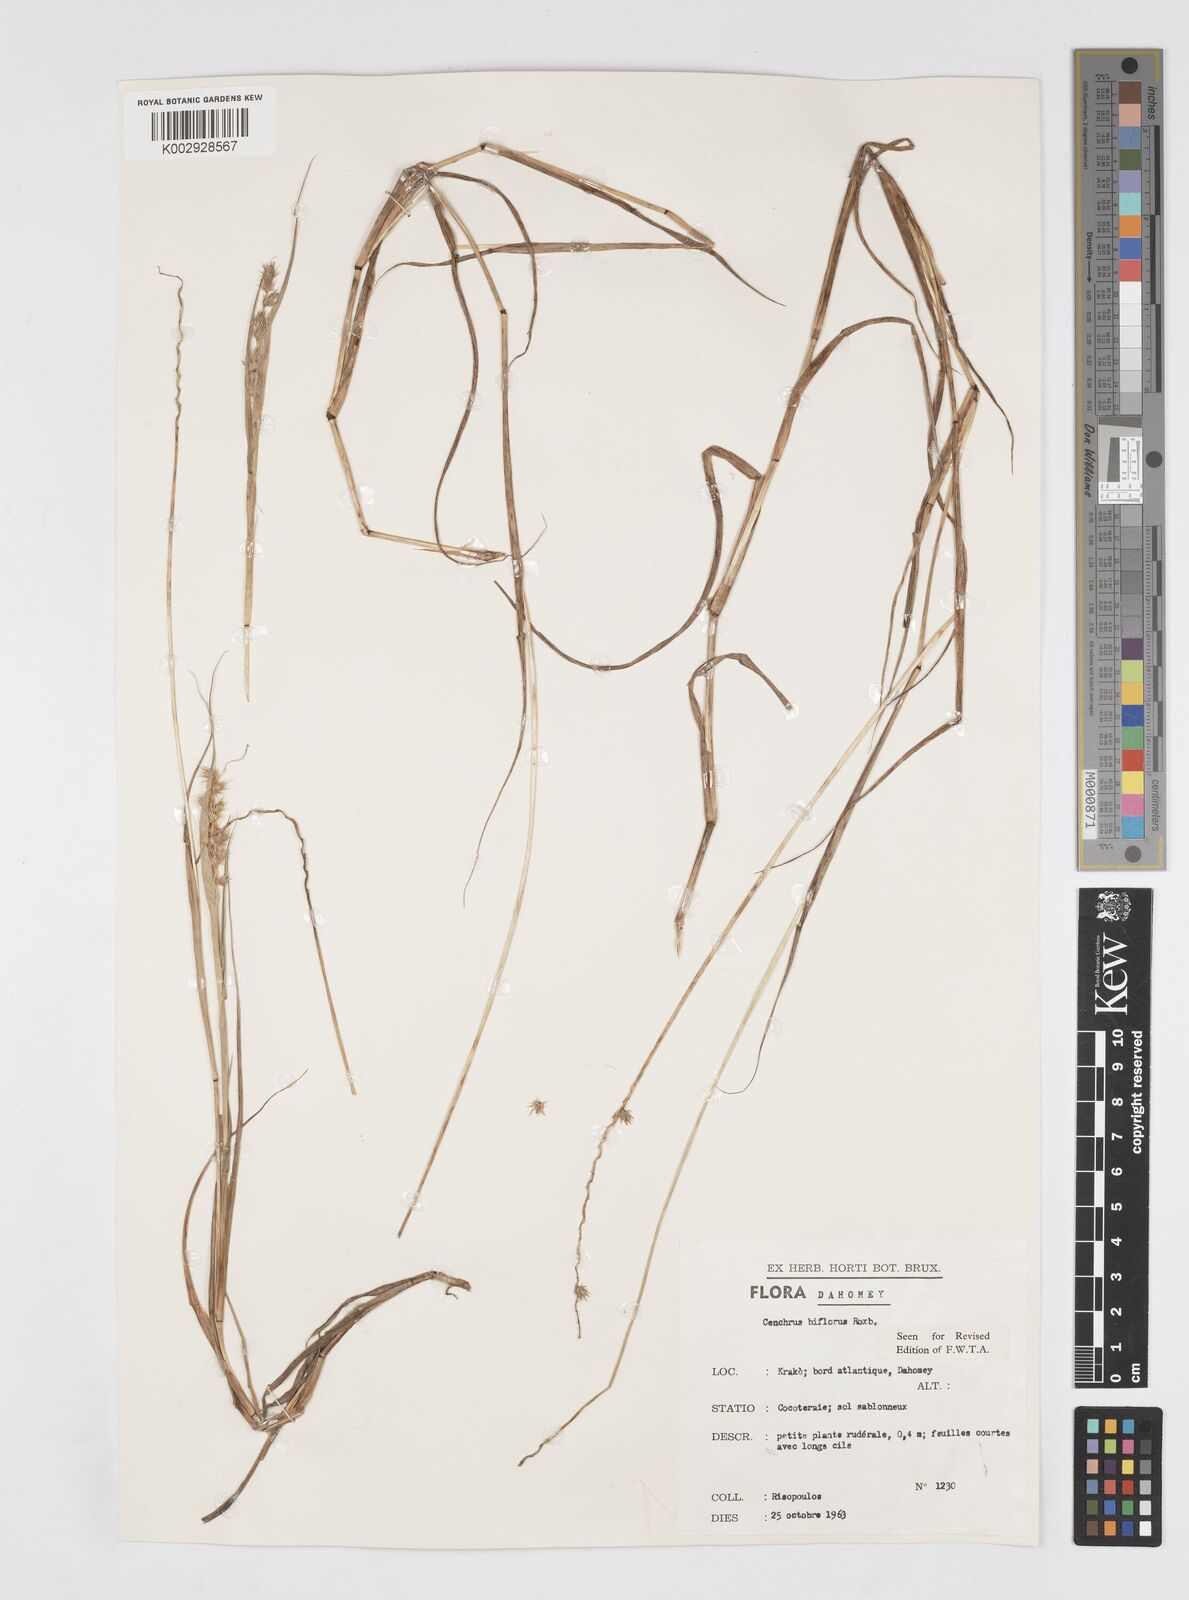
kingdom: Plantae
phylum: Tracheophyta
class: Liliopsida
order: Poales
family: Poaceae
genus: Cenchrus
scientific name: Cenchrus biflorus
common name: Indian sandbur
